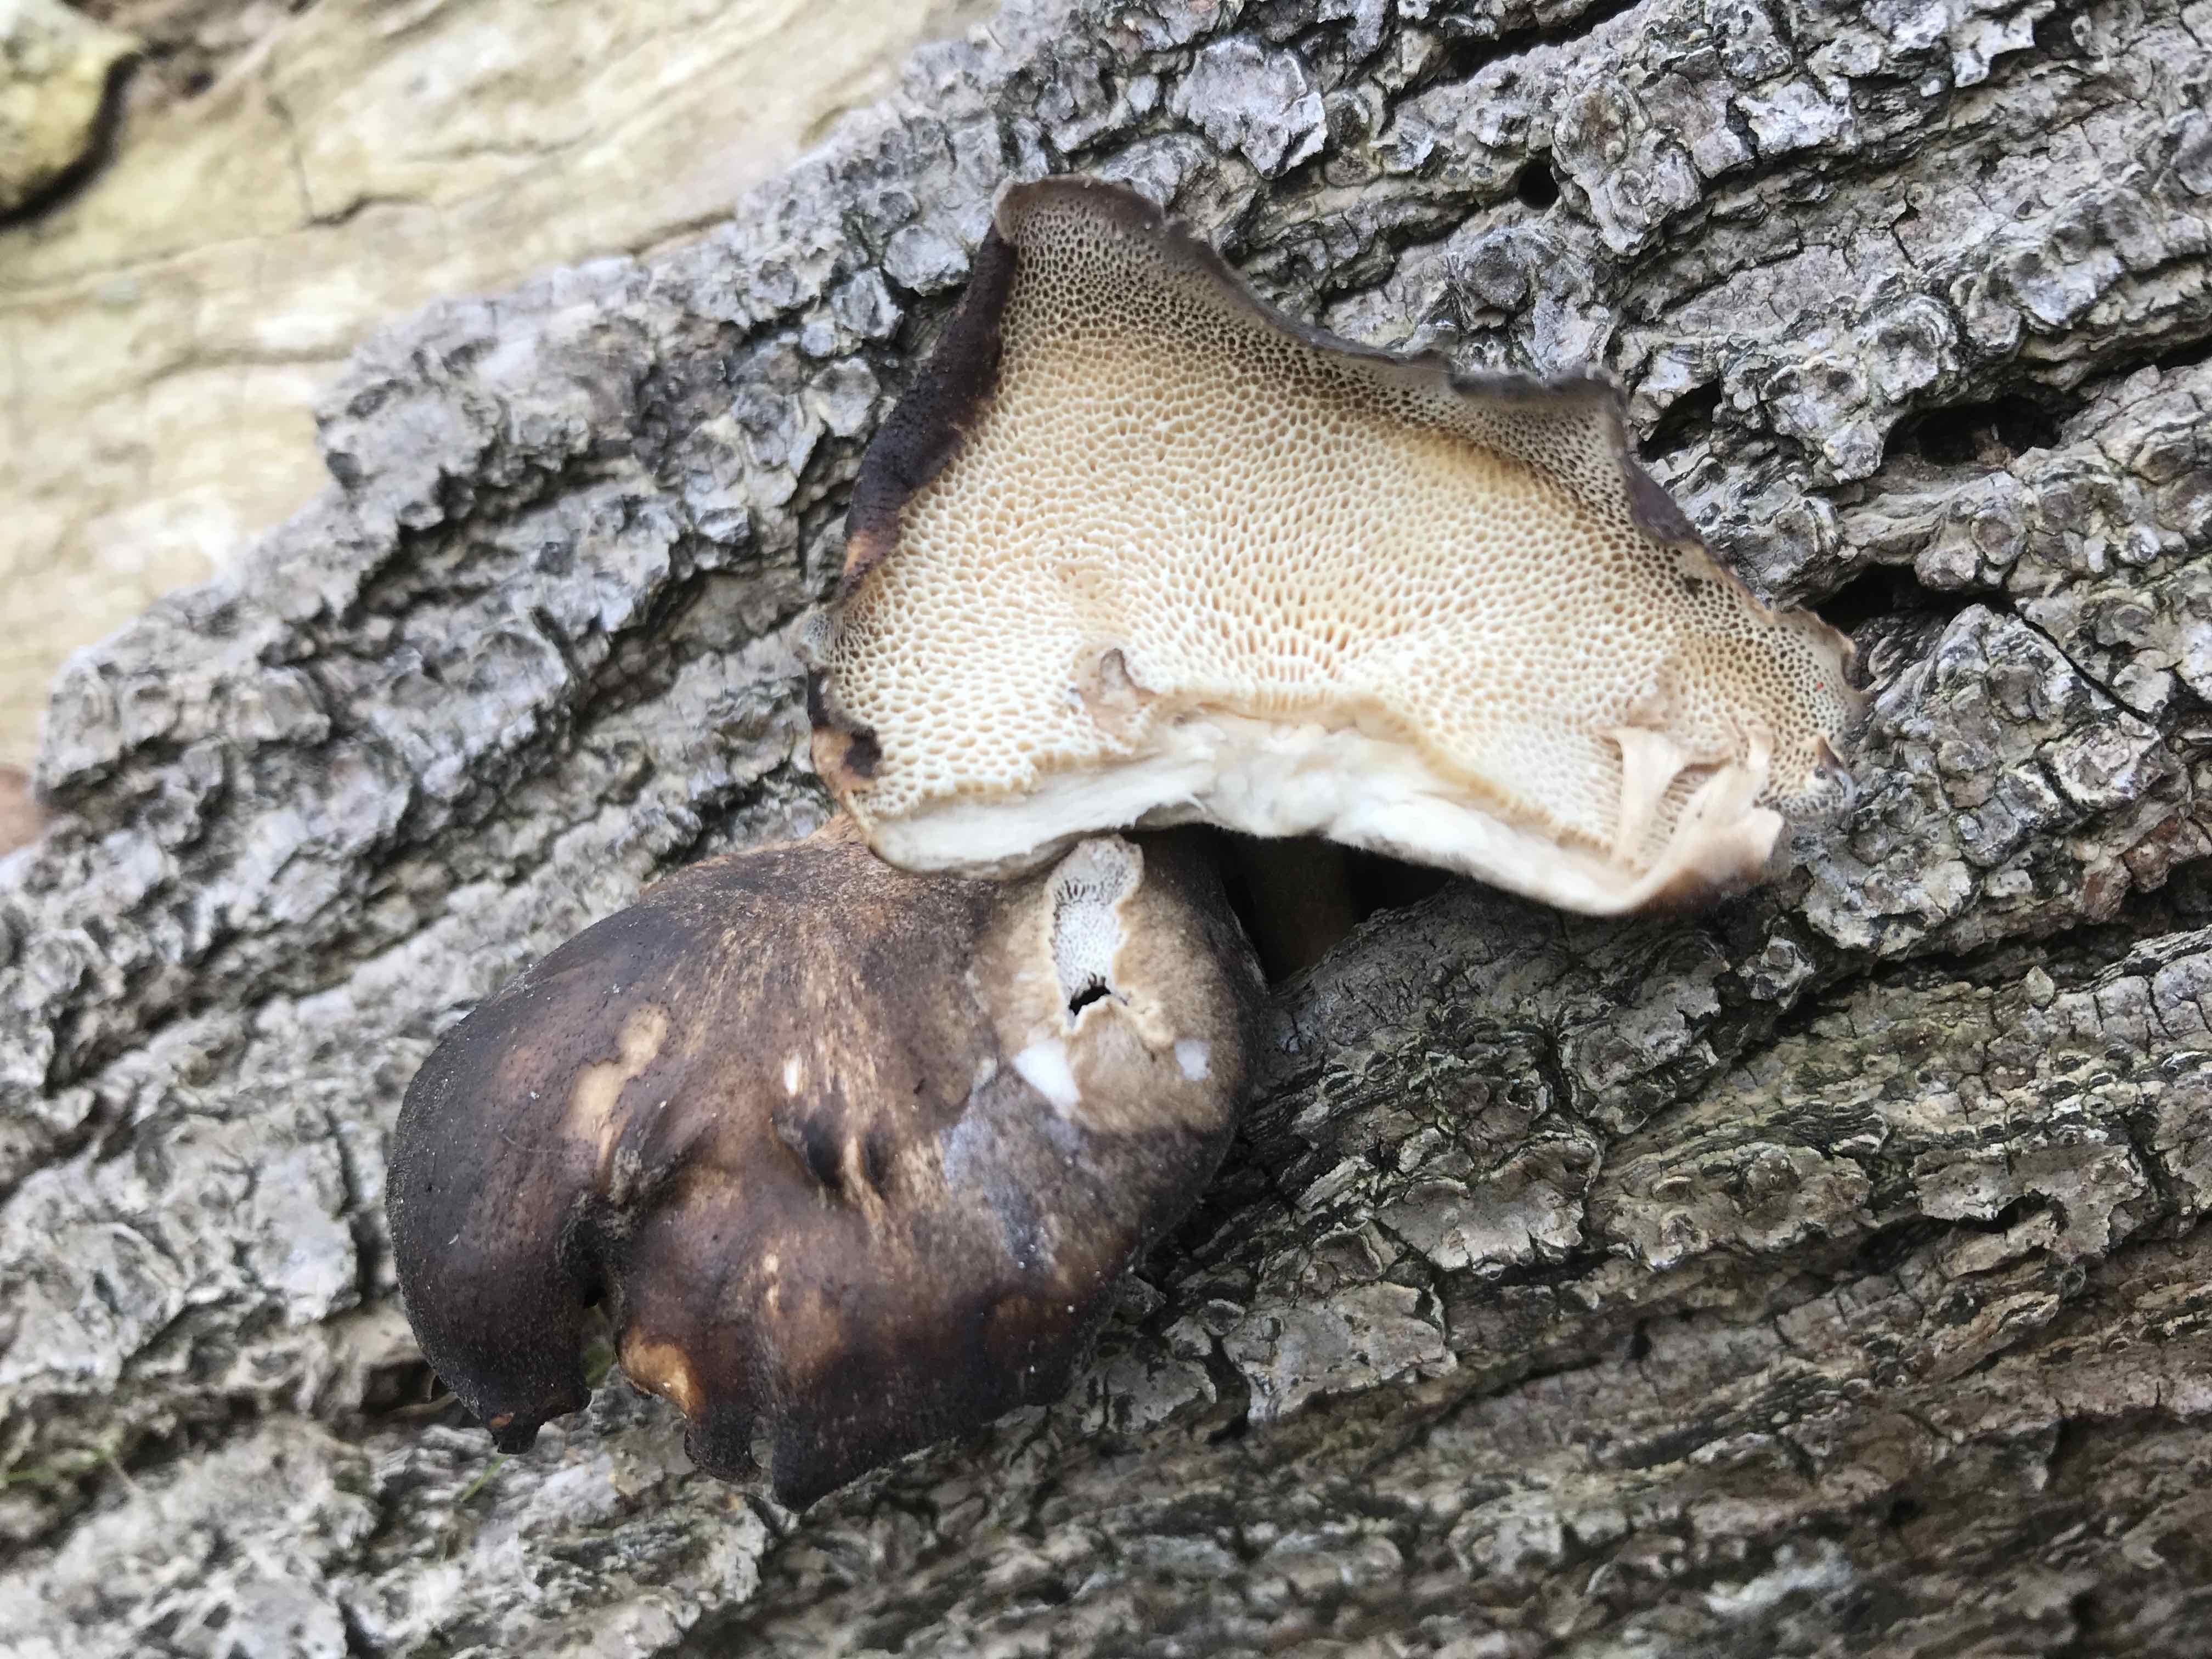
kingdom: Fungi
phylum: Basidiomycota
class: Agaricomycetes
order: Polyporales
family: Polyporaceae
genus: Lentinus
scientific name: Lentinus brumalis
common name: vinter-stilkporesvamp
